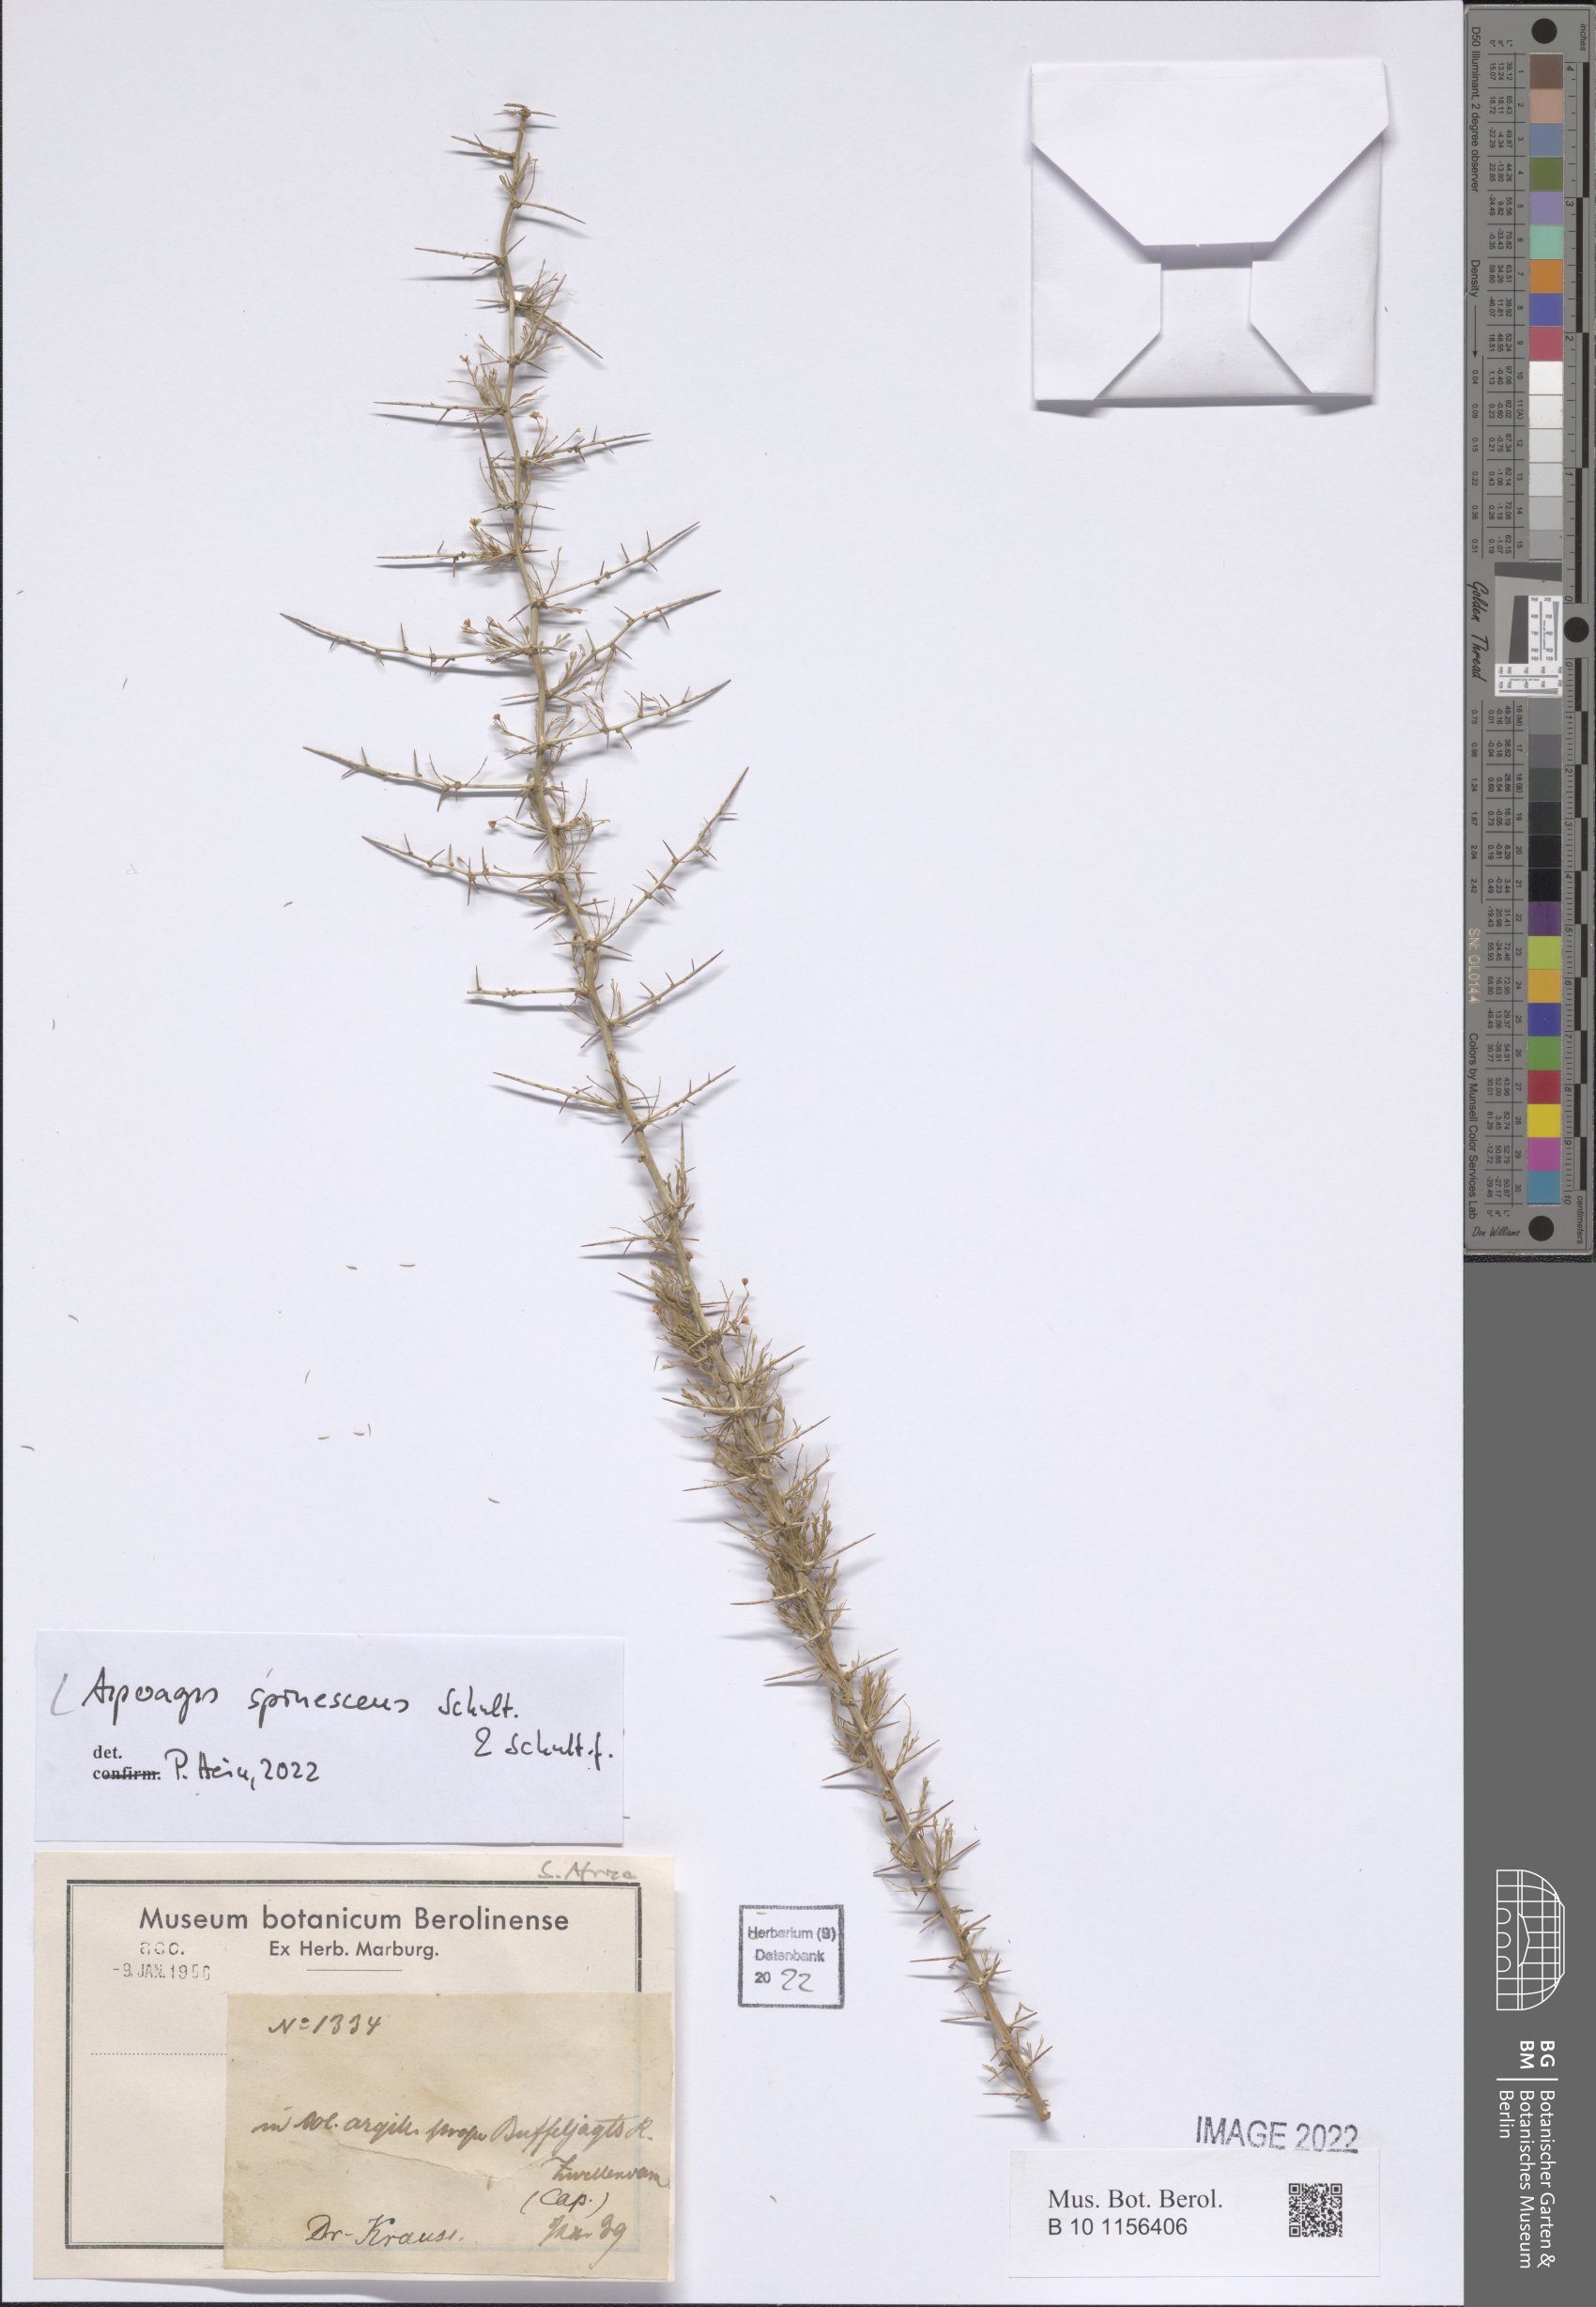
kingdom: Plantae
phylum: Tracheophyta
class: Liliopsida
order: Asparagales
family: Asparagaceae
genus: Asparagus
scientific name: Asparagus spinescens
